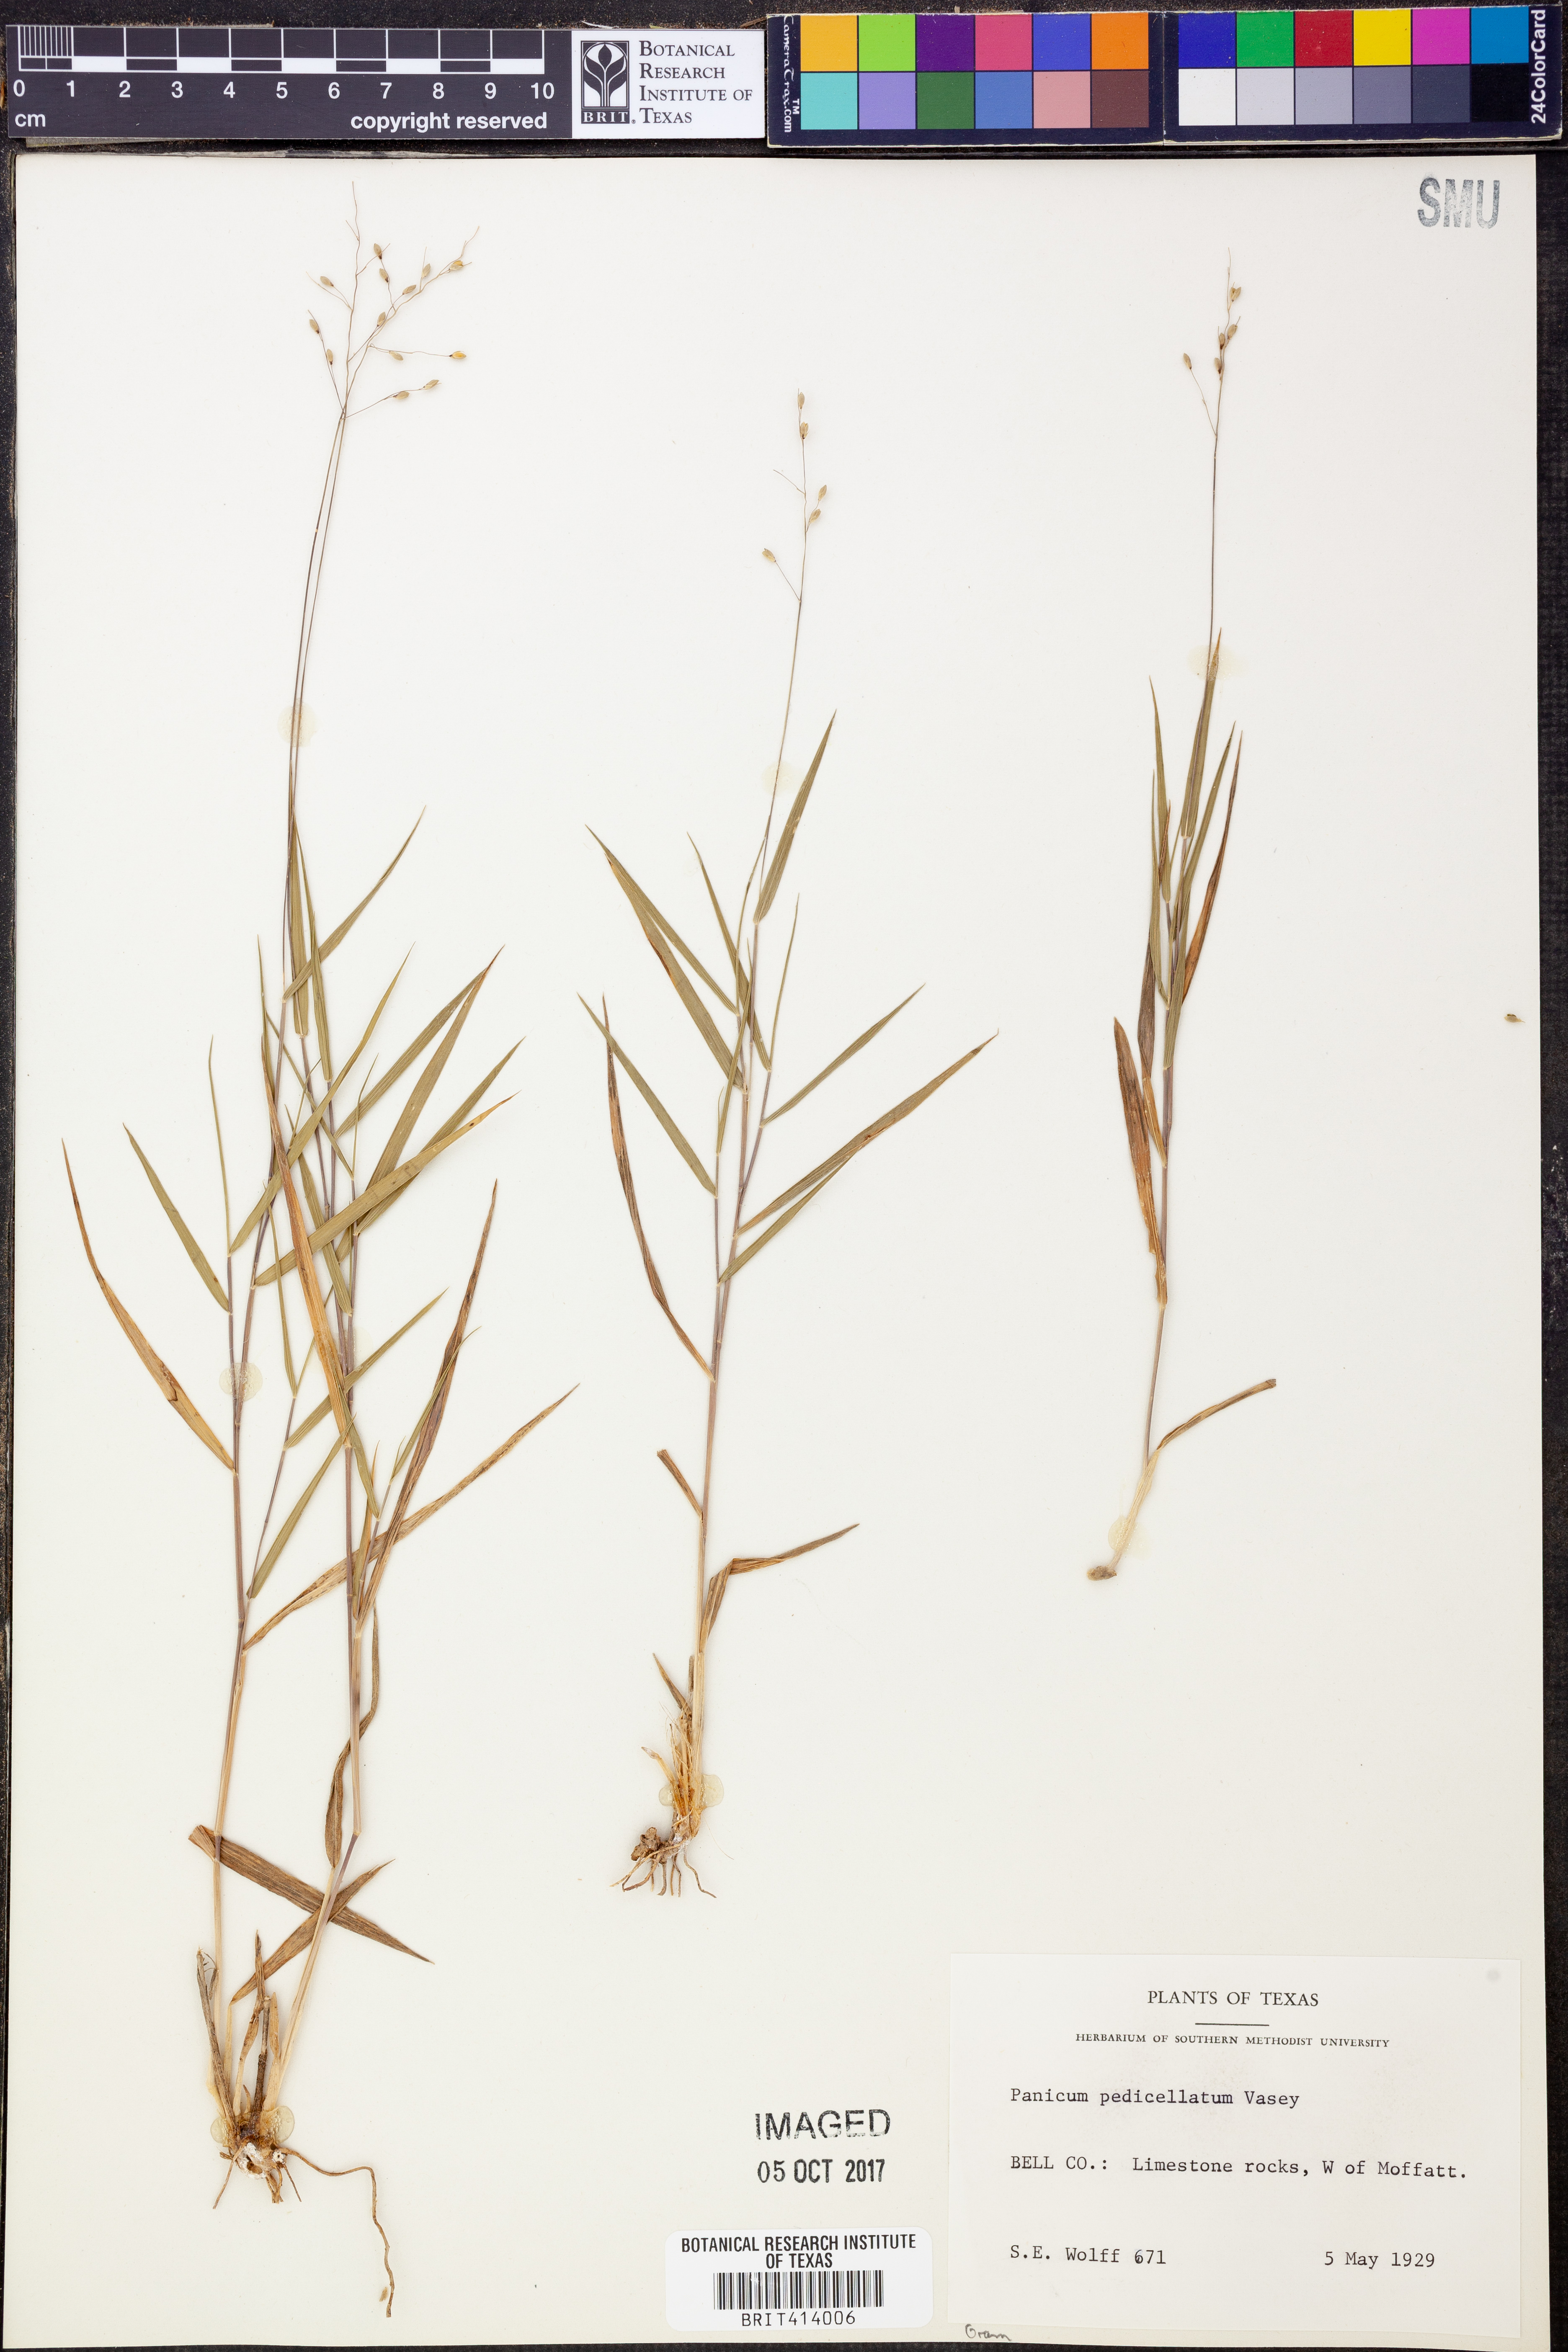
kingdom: Plantae
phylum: Tracheophyta
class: Liliopsida
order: Poales
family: Poaceae
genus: Dichanthelium
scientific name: Dichanthelium transiens
